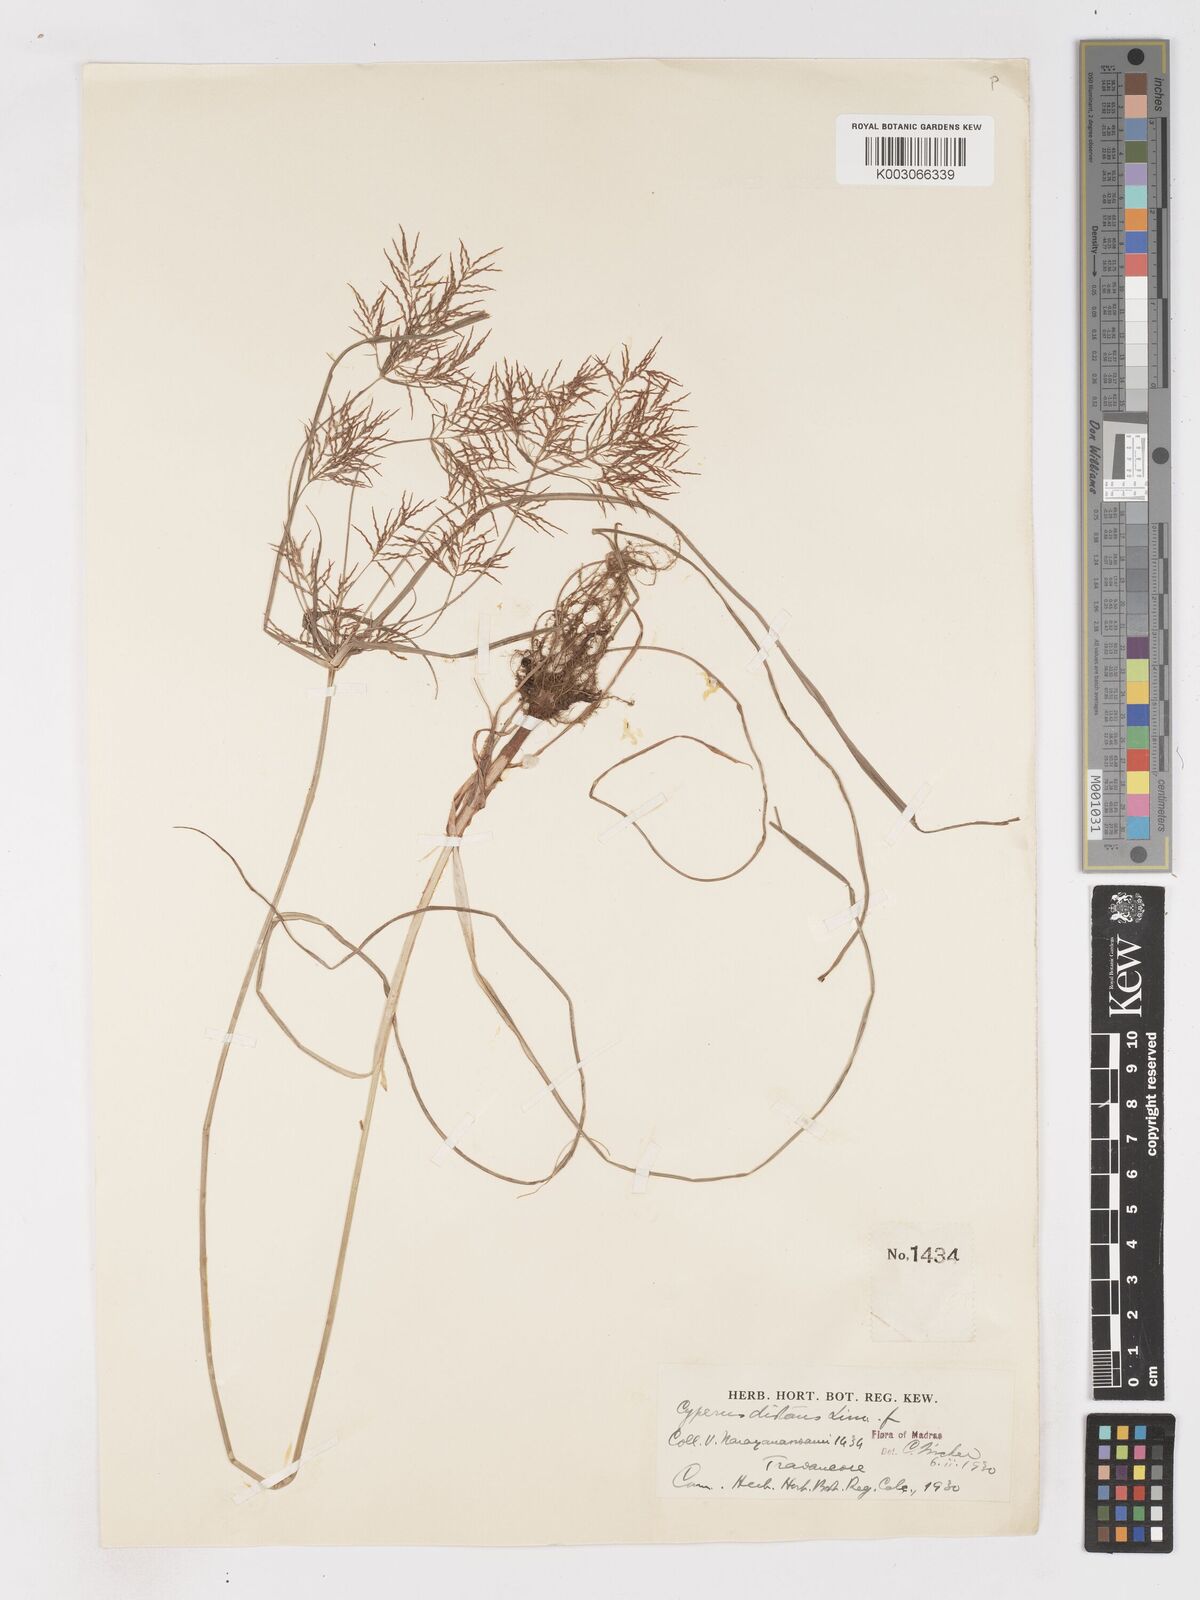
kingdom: Plantae
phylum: Tracheophyta
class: Liliopsida
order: Poales
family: Cyperaceae
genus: Cyperus
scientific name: Cyperus distans
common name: Slender cyperus
